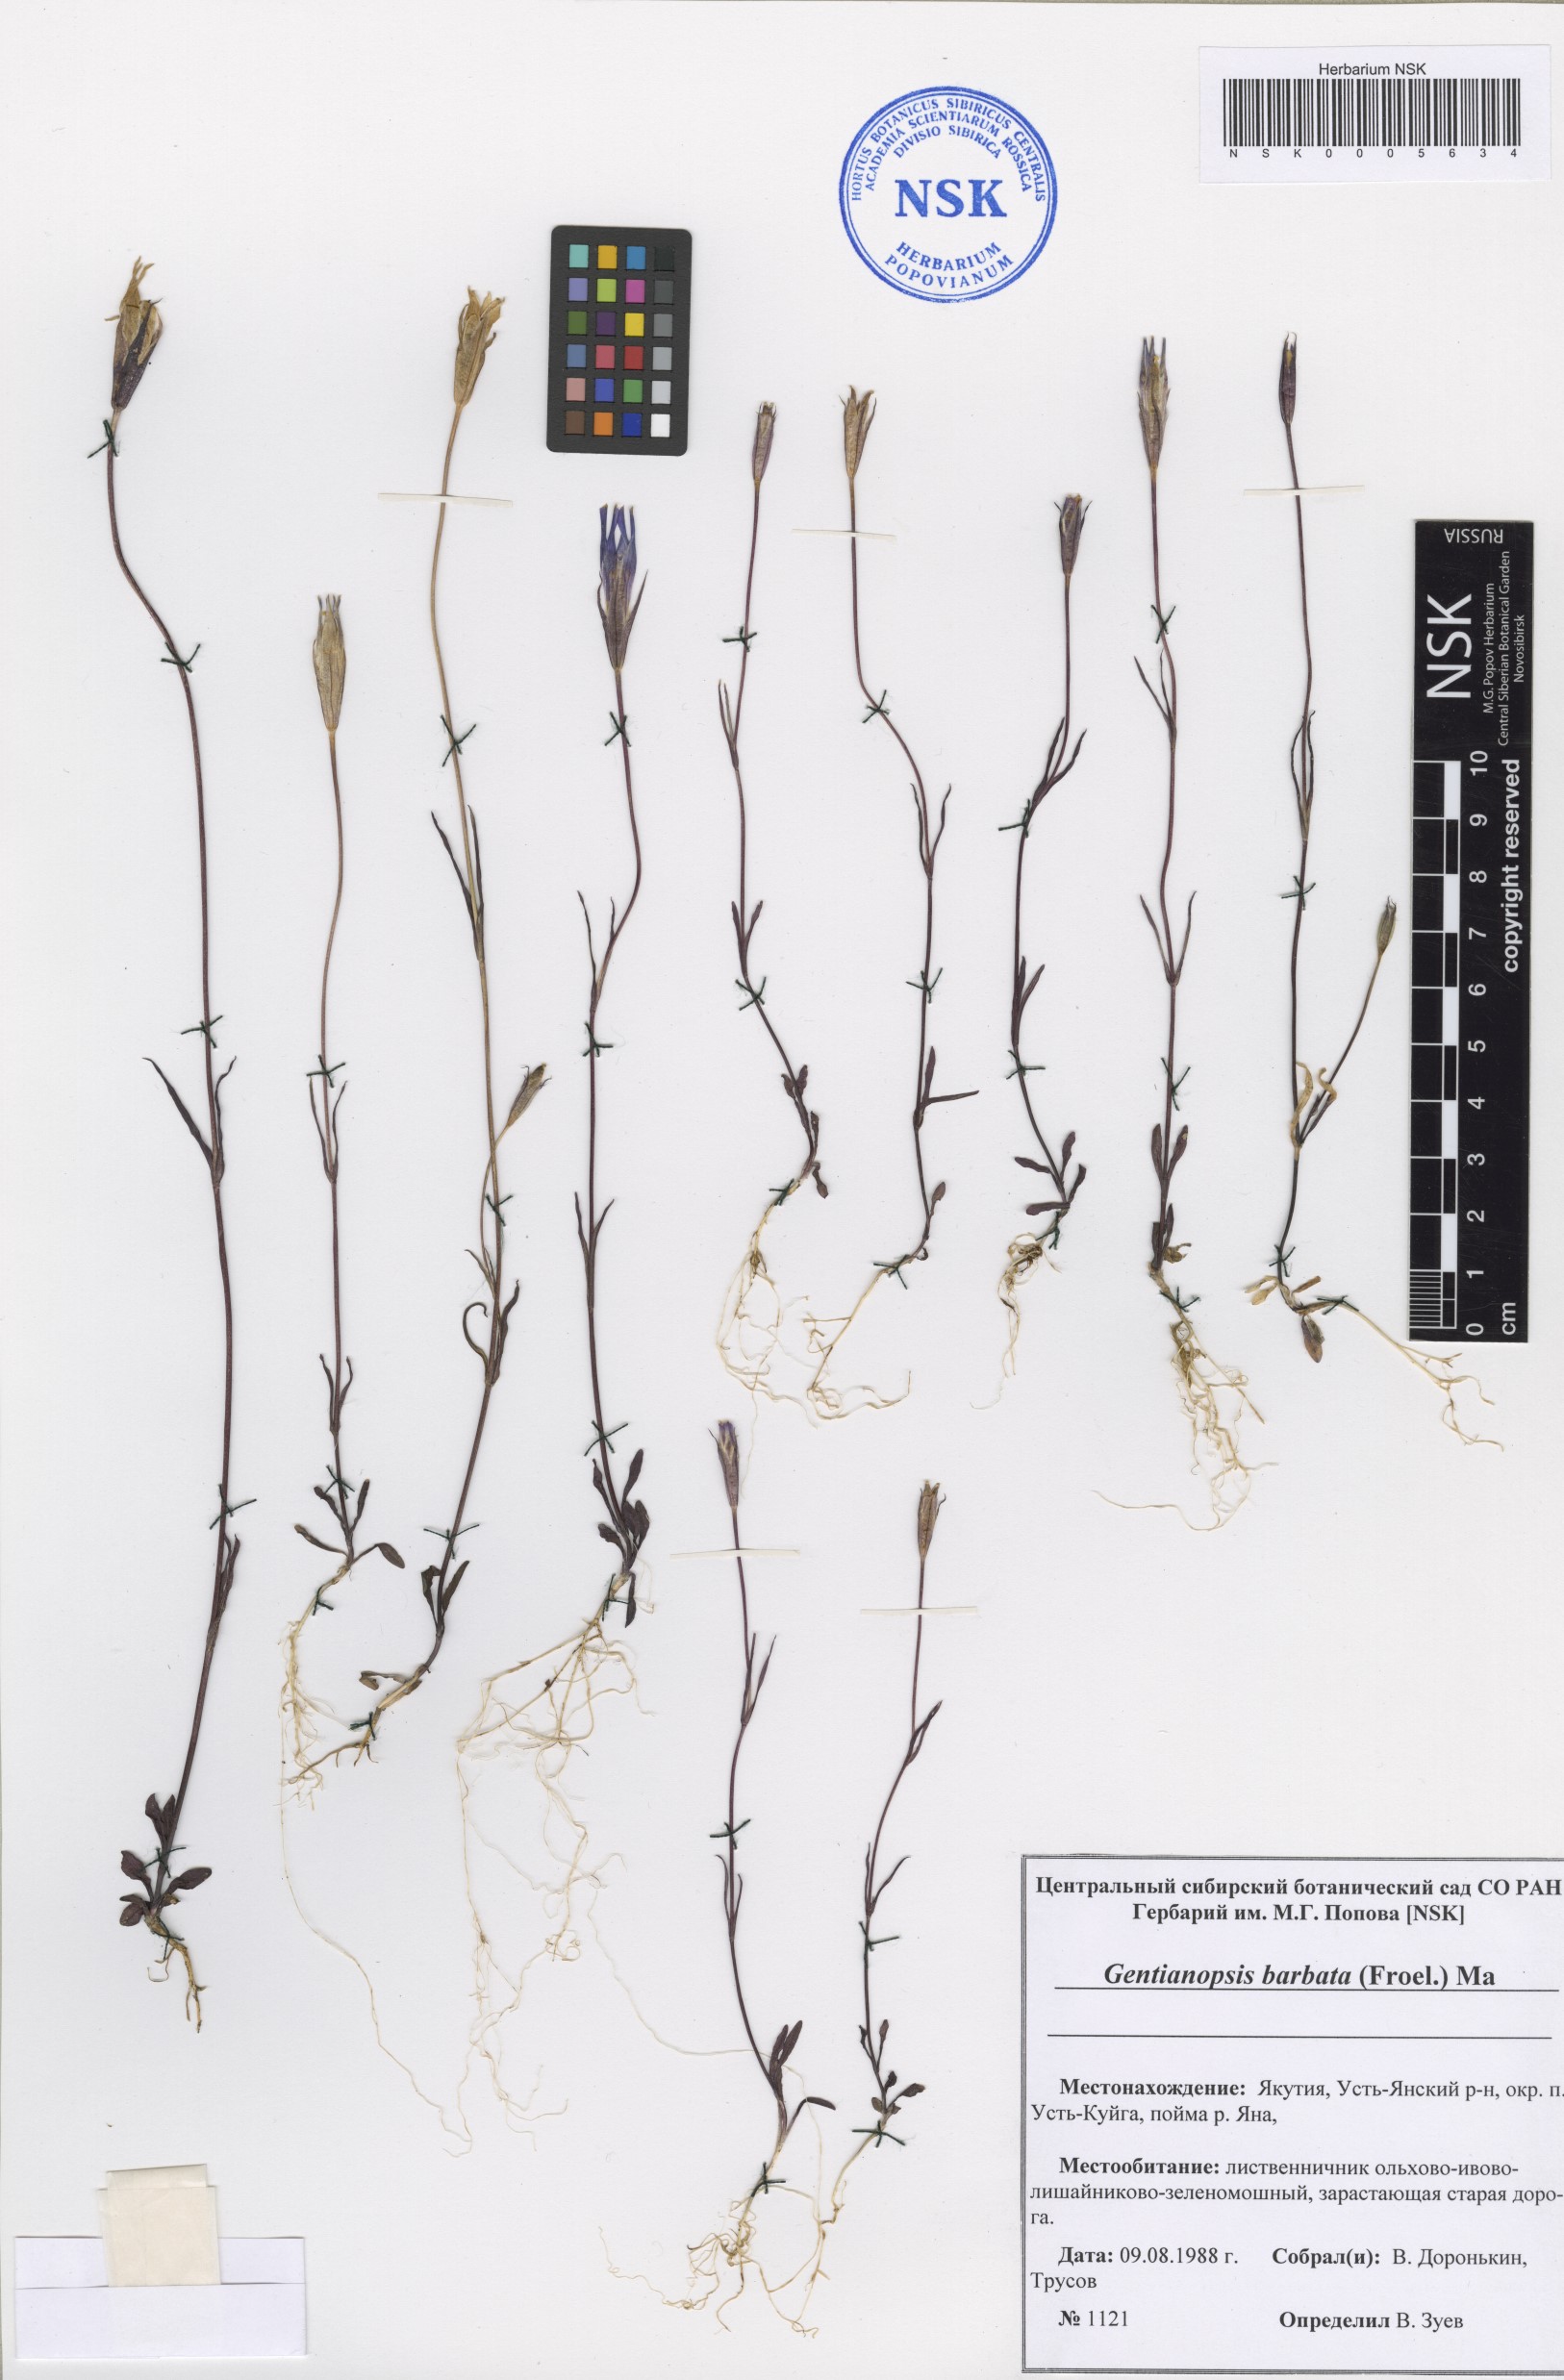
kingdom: Plantae
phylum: Tracheophyta
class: Magnoliopsida
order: Gentianales
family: Gentianaceae
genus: Gentianopsis
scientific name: Gentianopsis barbata
